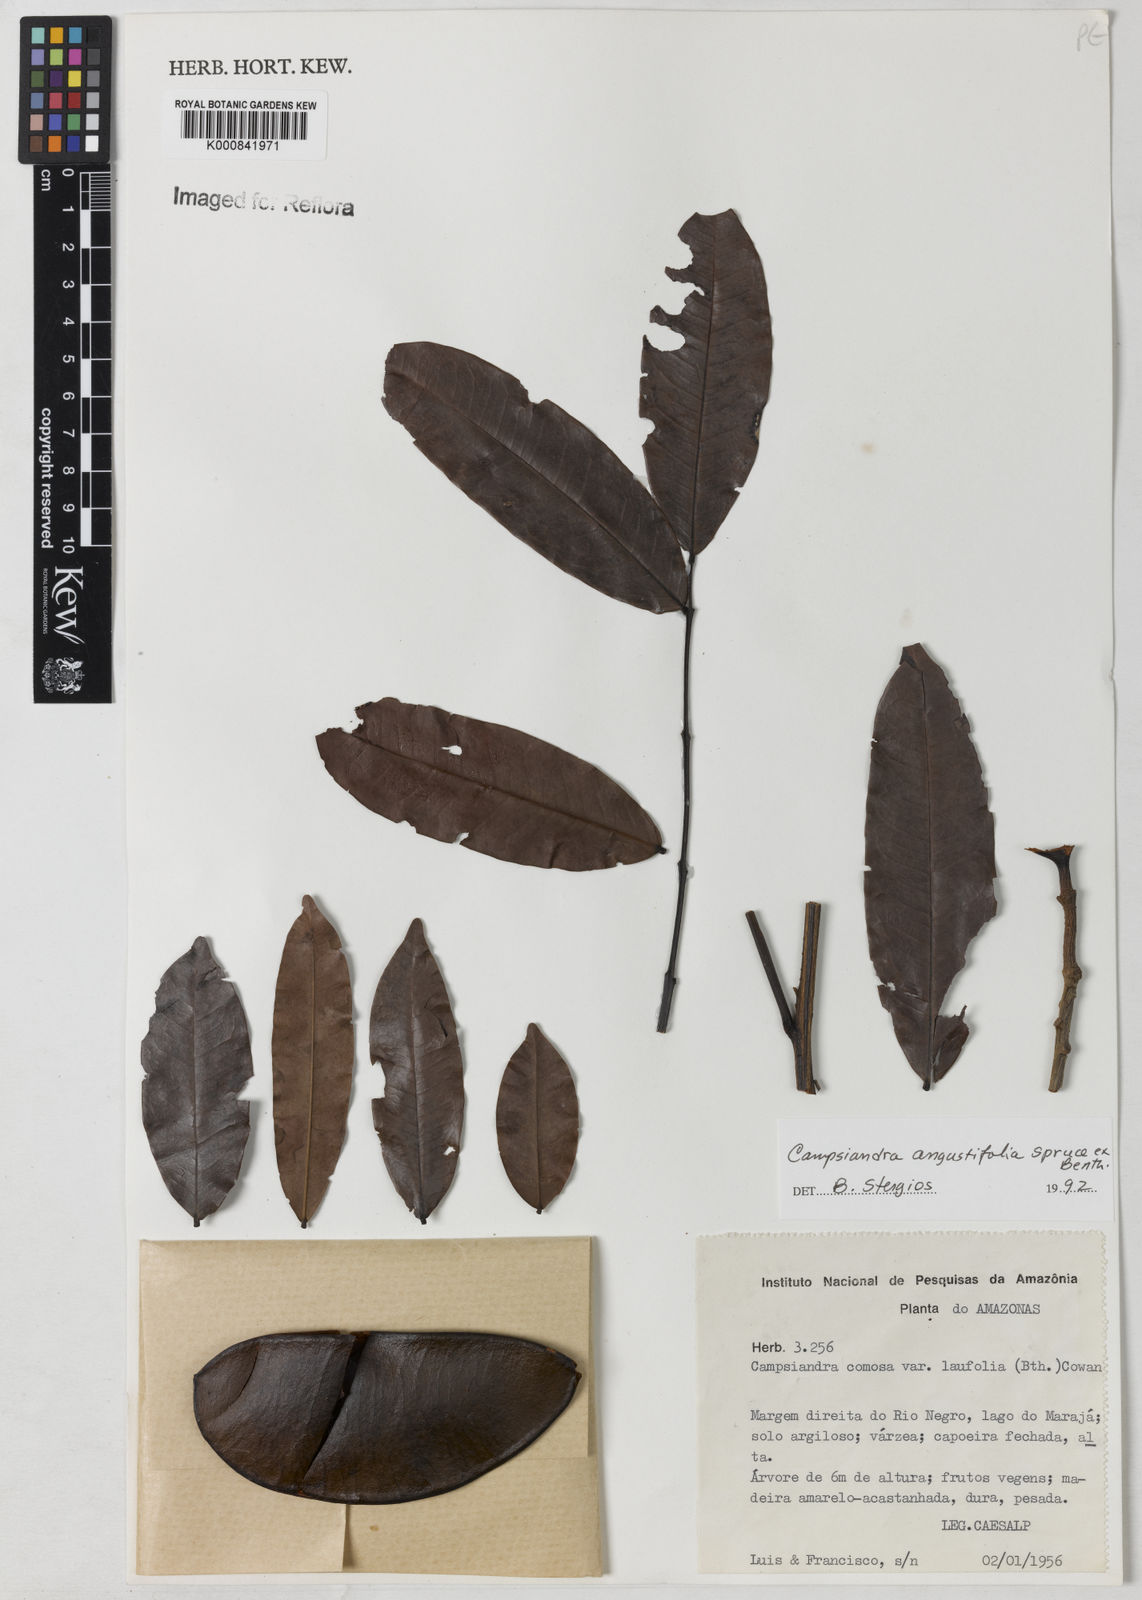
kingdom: Plantae
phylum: Tracheophyta
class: Magnoliopsida
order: Fabales
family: Fabaceae
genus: Campsiandra
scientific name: Campsiandra
